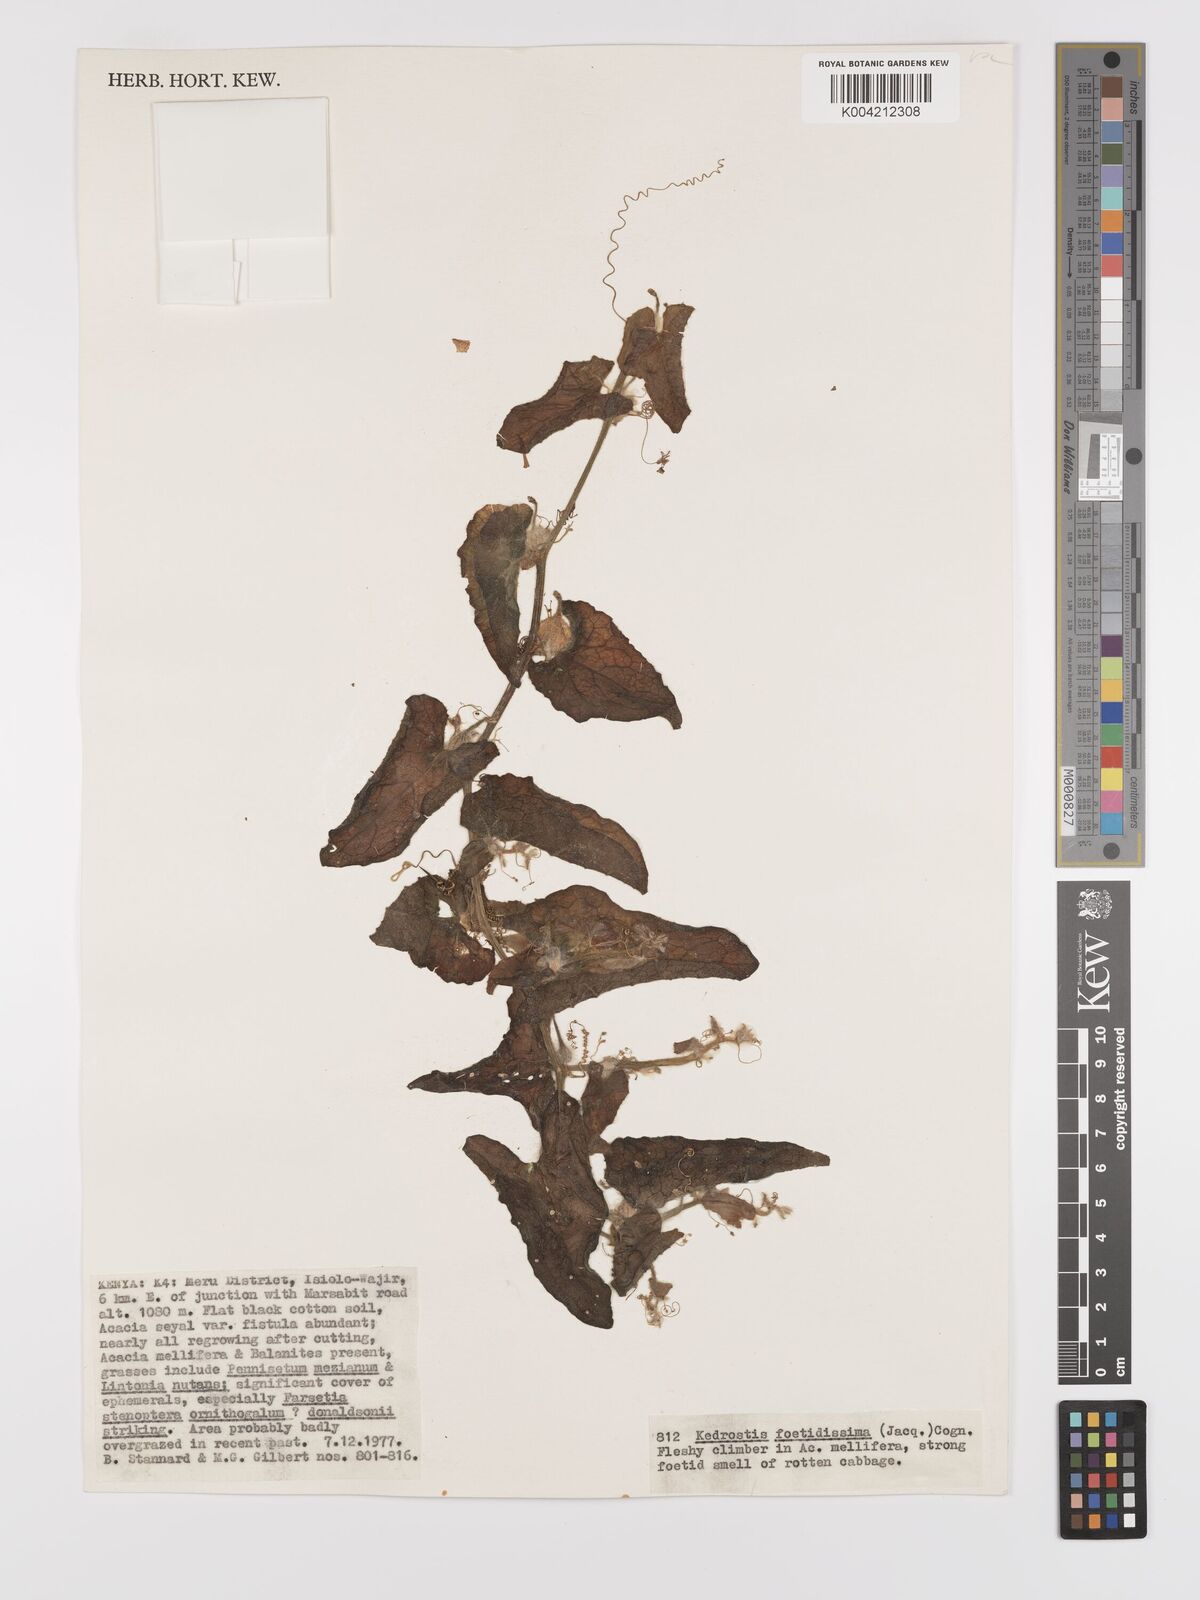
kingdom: Plantae
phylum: Tracheophyta
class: Magnoliopsida
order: Cucurbitales
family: Cucurbitaceae
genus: Kedrostis
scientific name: Kedrostis foetidissima
